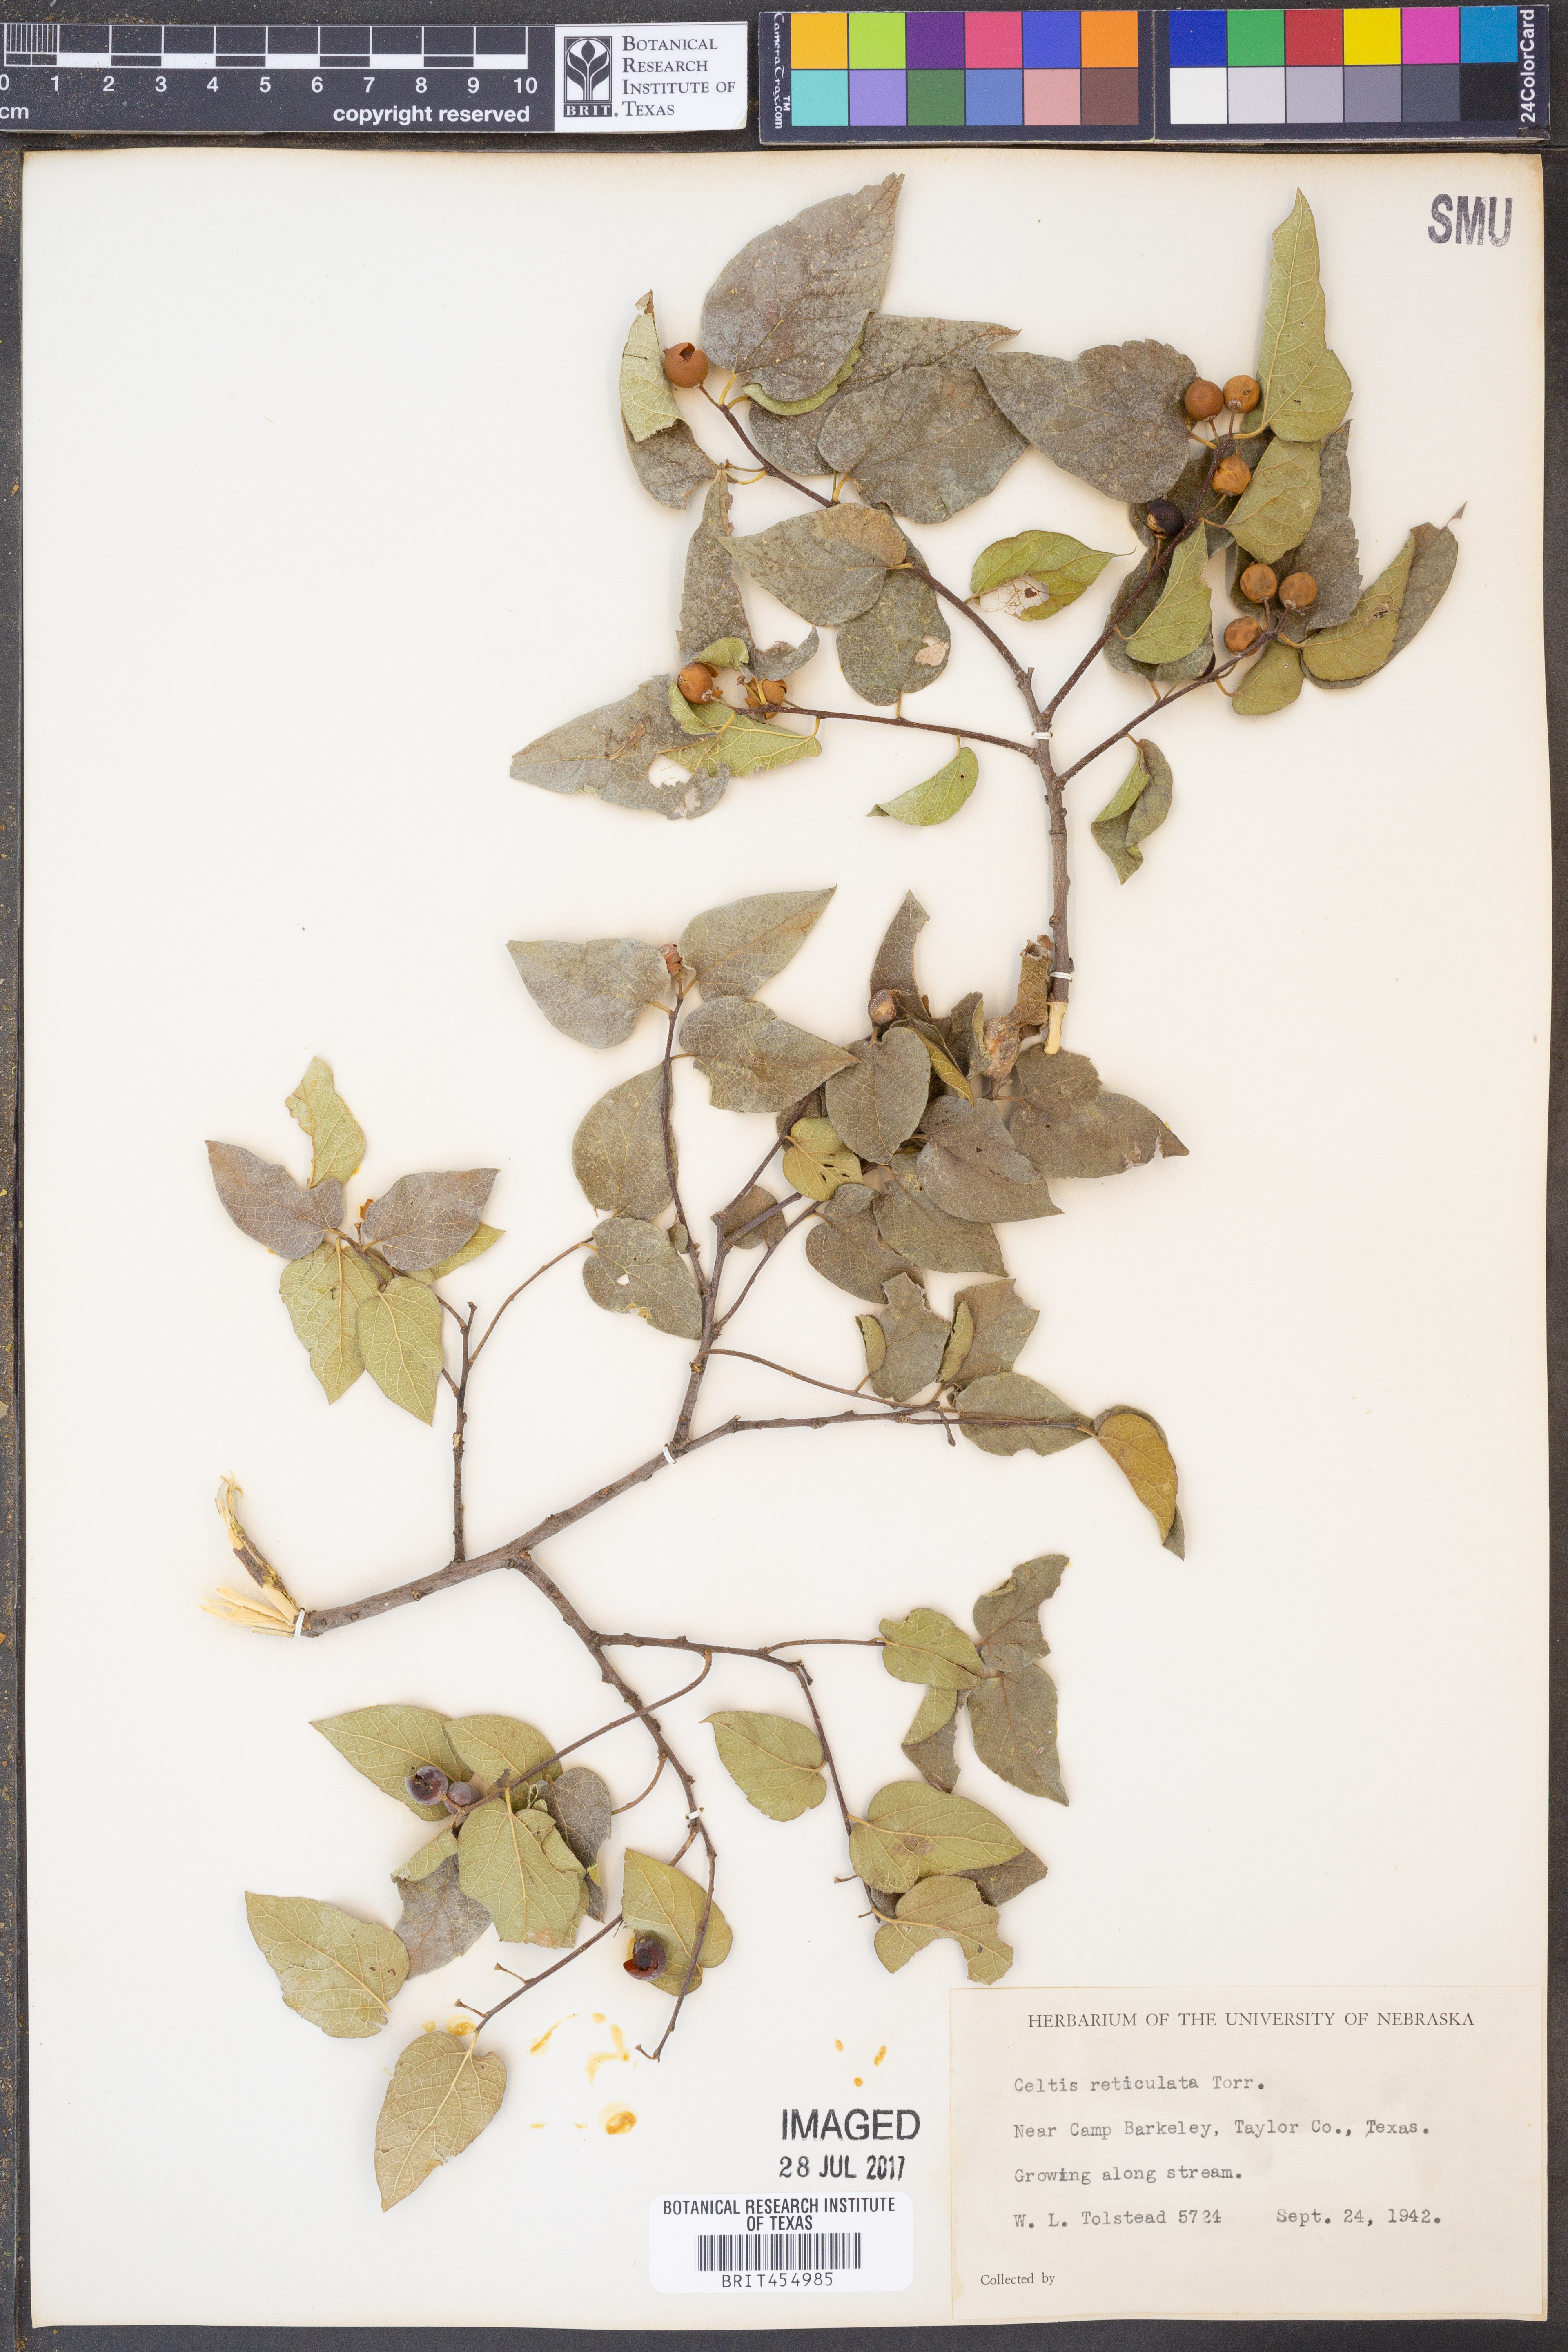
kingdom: Plantae
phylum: Tracheophyta
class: Magnoliopsida
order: Rosales
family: Cannabaceae
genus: Celtis
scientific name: Celtis reticulata
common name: Netleaf hackberry
